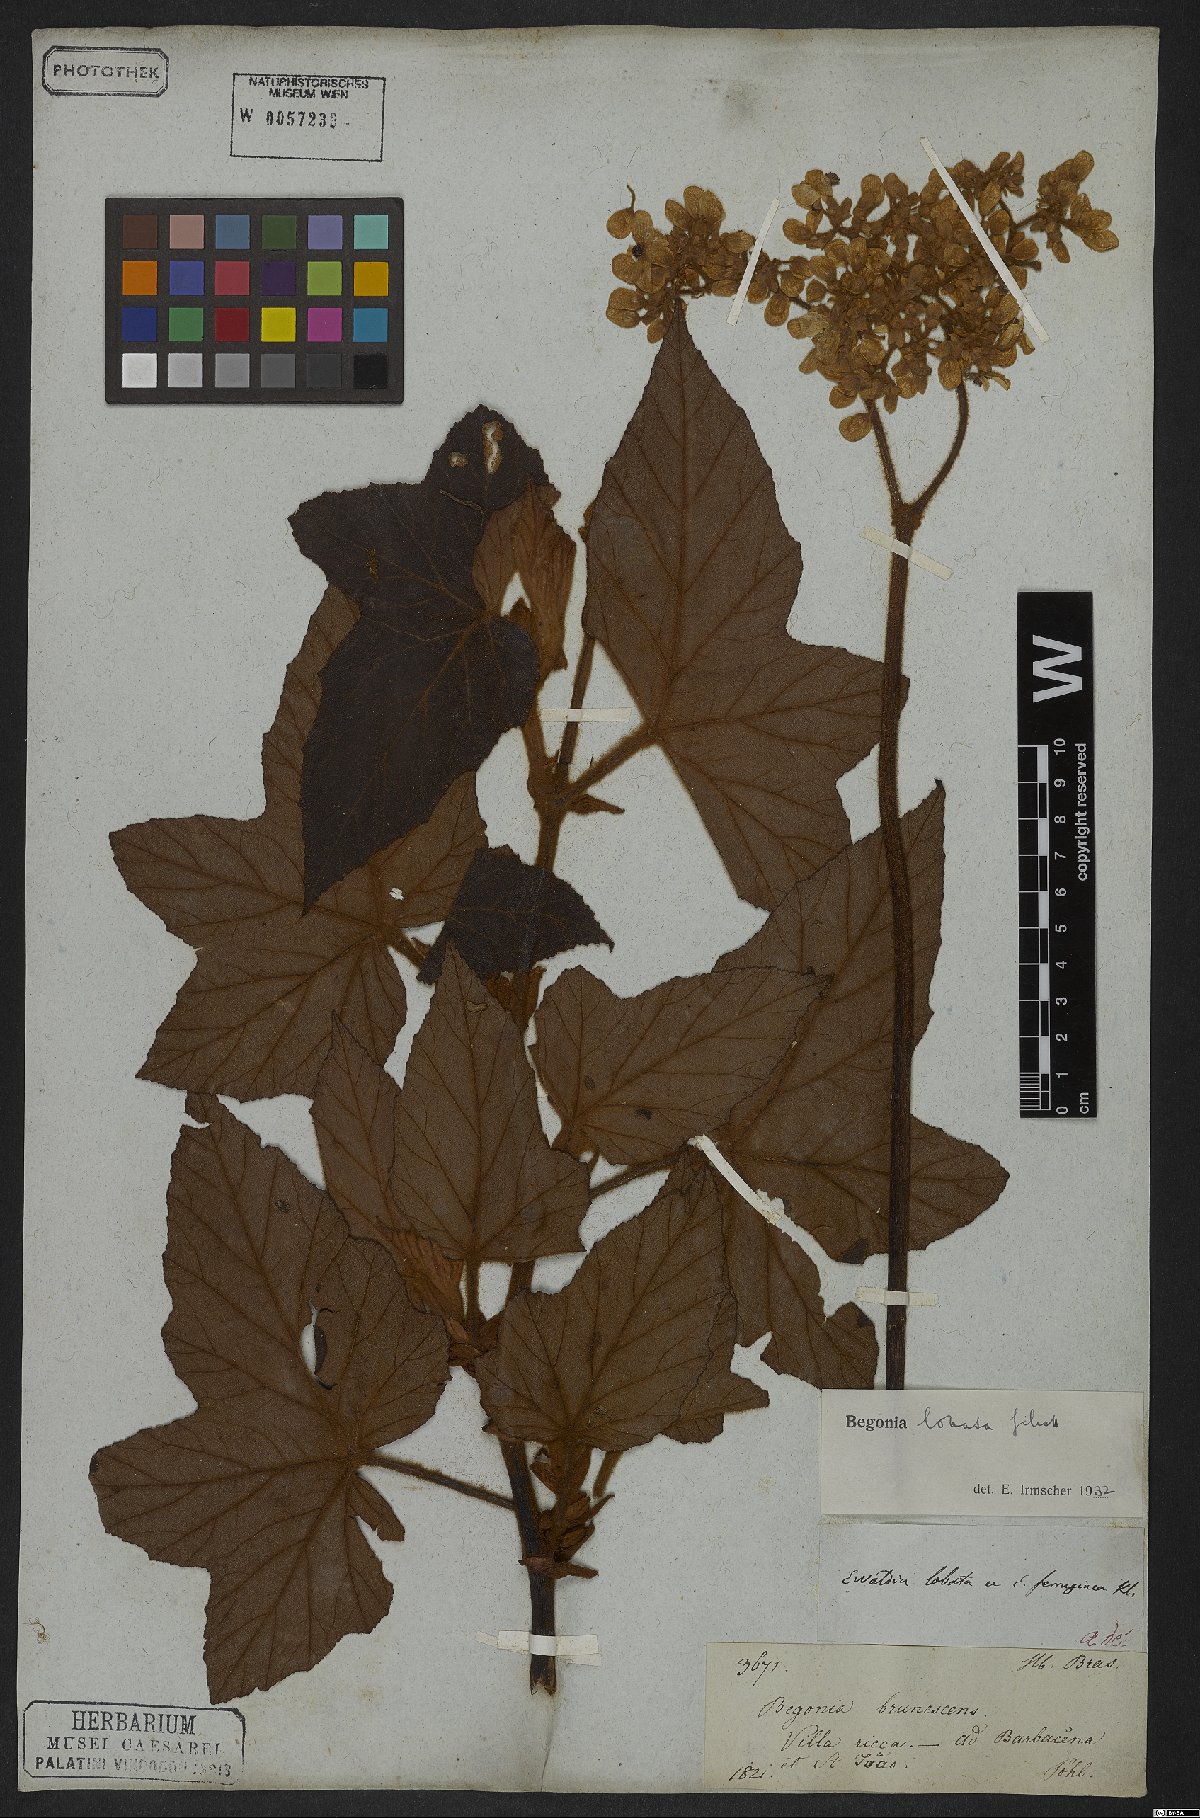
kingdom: Plantae
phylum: Tracheophyta
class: Magnoliopsida
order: Cucurbitales
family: Begoniaceae
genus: Begonia
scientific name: Begonia rufa
